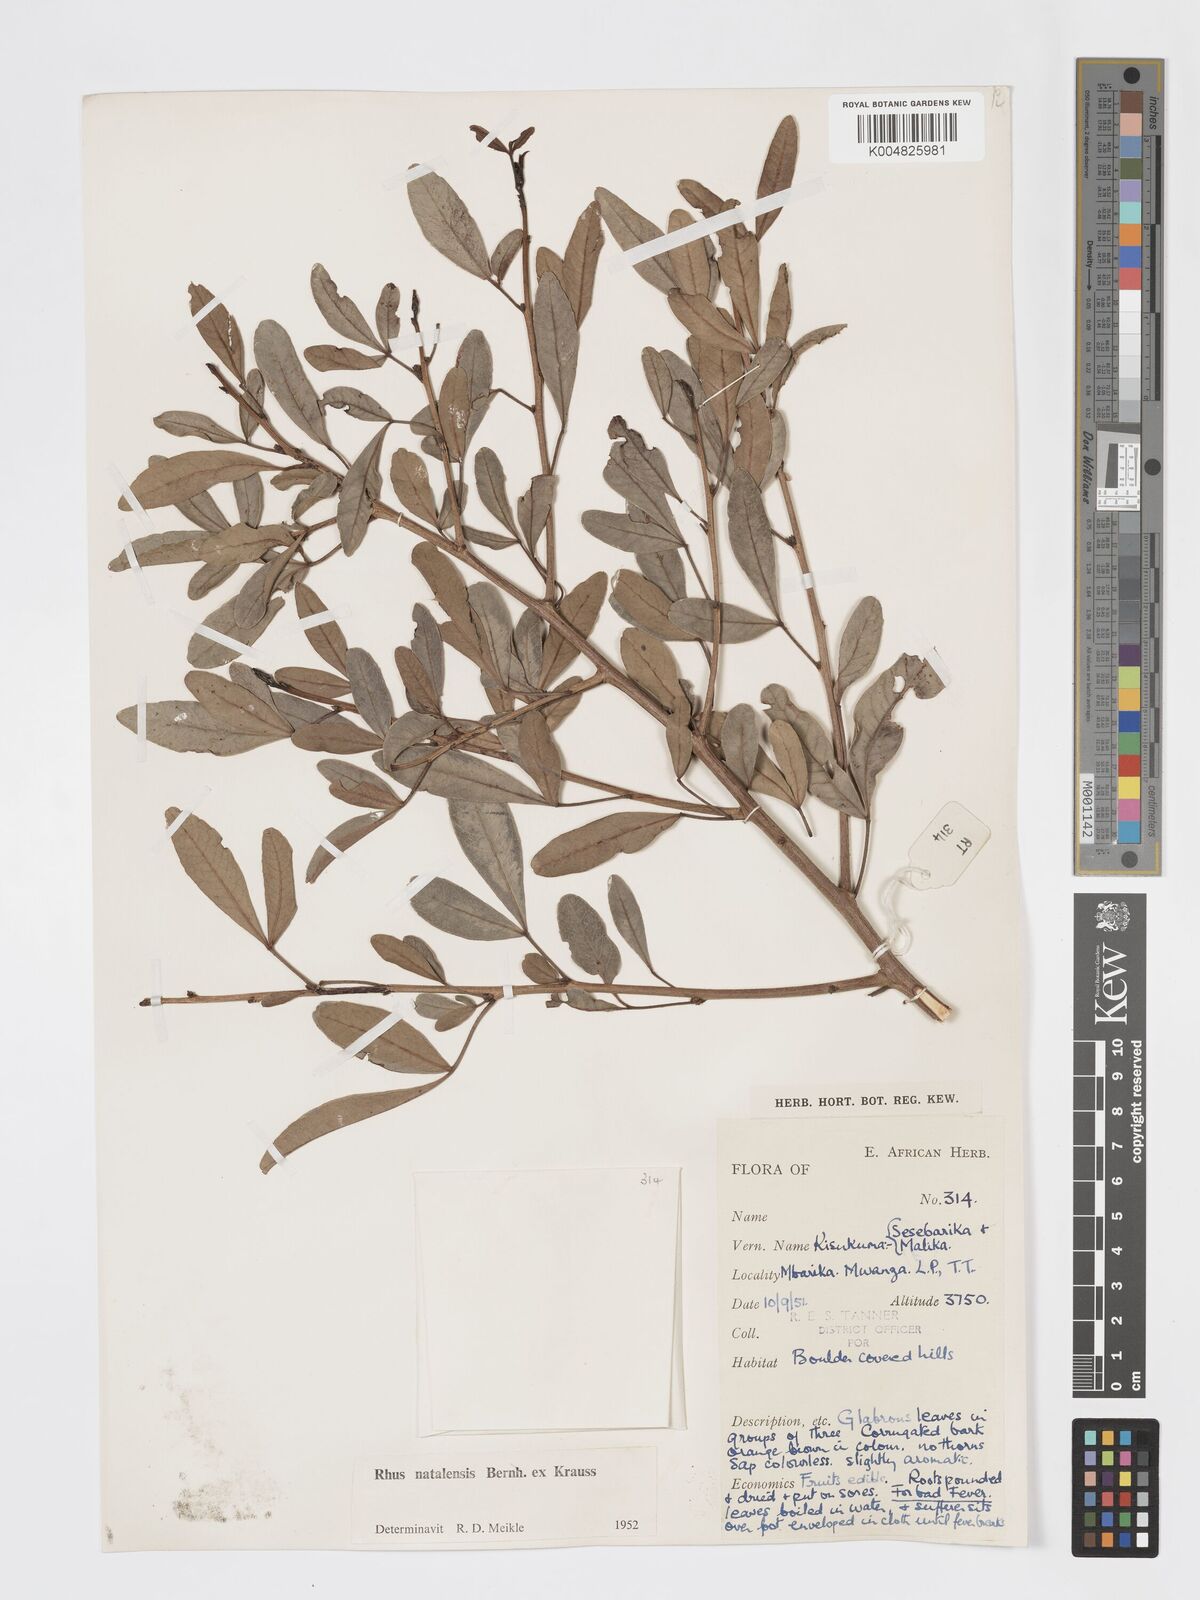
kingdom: Plantae
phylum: Tracheophyta
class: Magnoliopsida
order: Sapindales
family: Anacardiaceae
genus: Searsia
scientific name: Searsia natalensis
